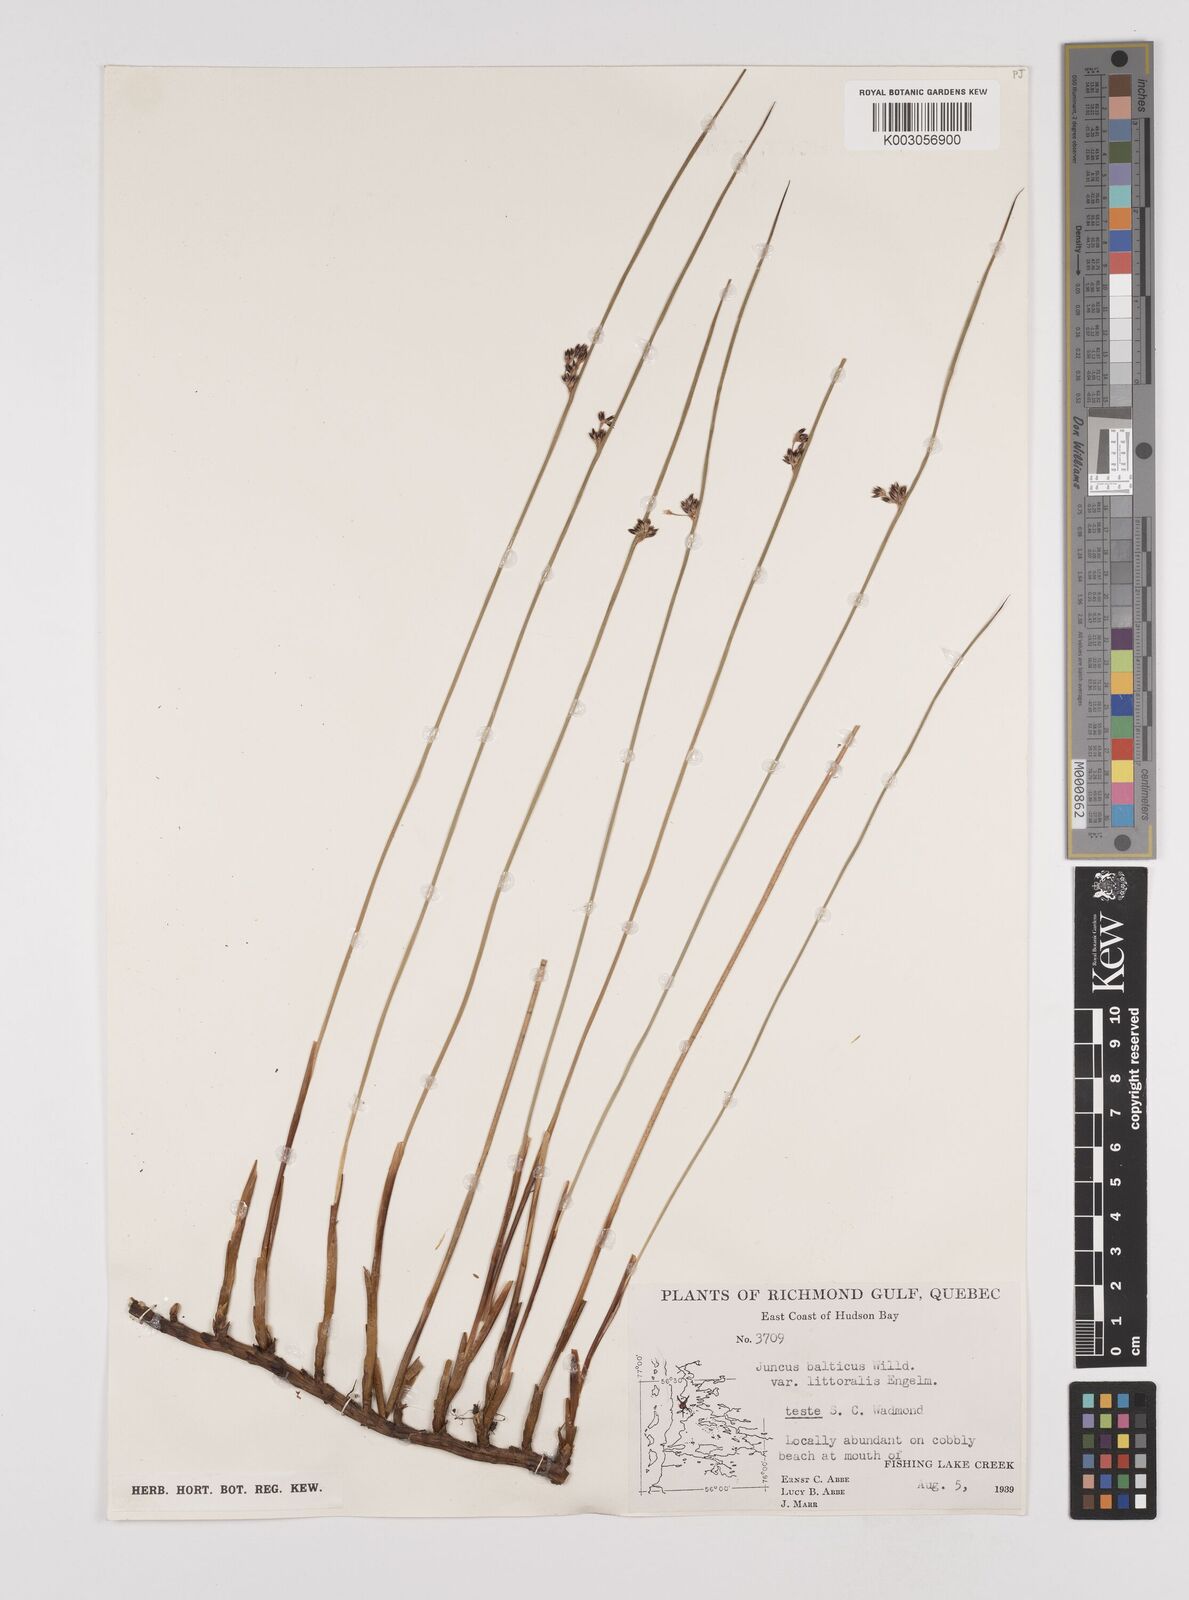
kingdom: Plantae
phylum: Tracheophyta
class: Liliopsida
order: Poales
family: Juncaceae
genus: Juncus
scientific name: Juncus balticus
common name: Baltic rush
